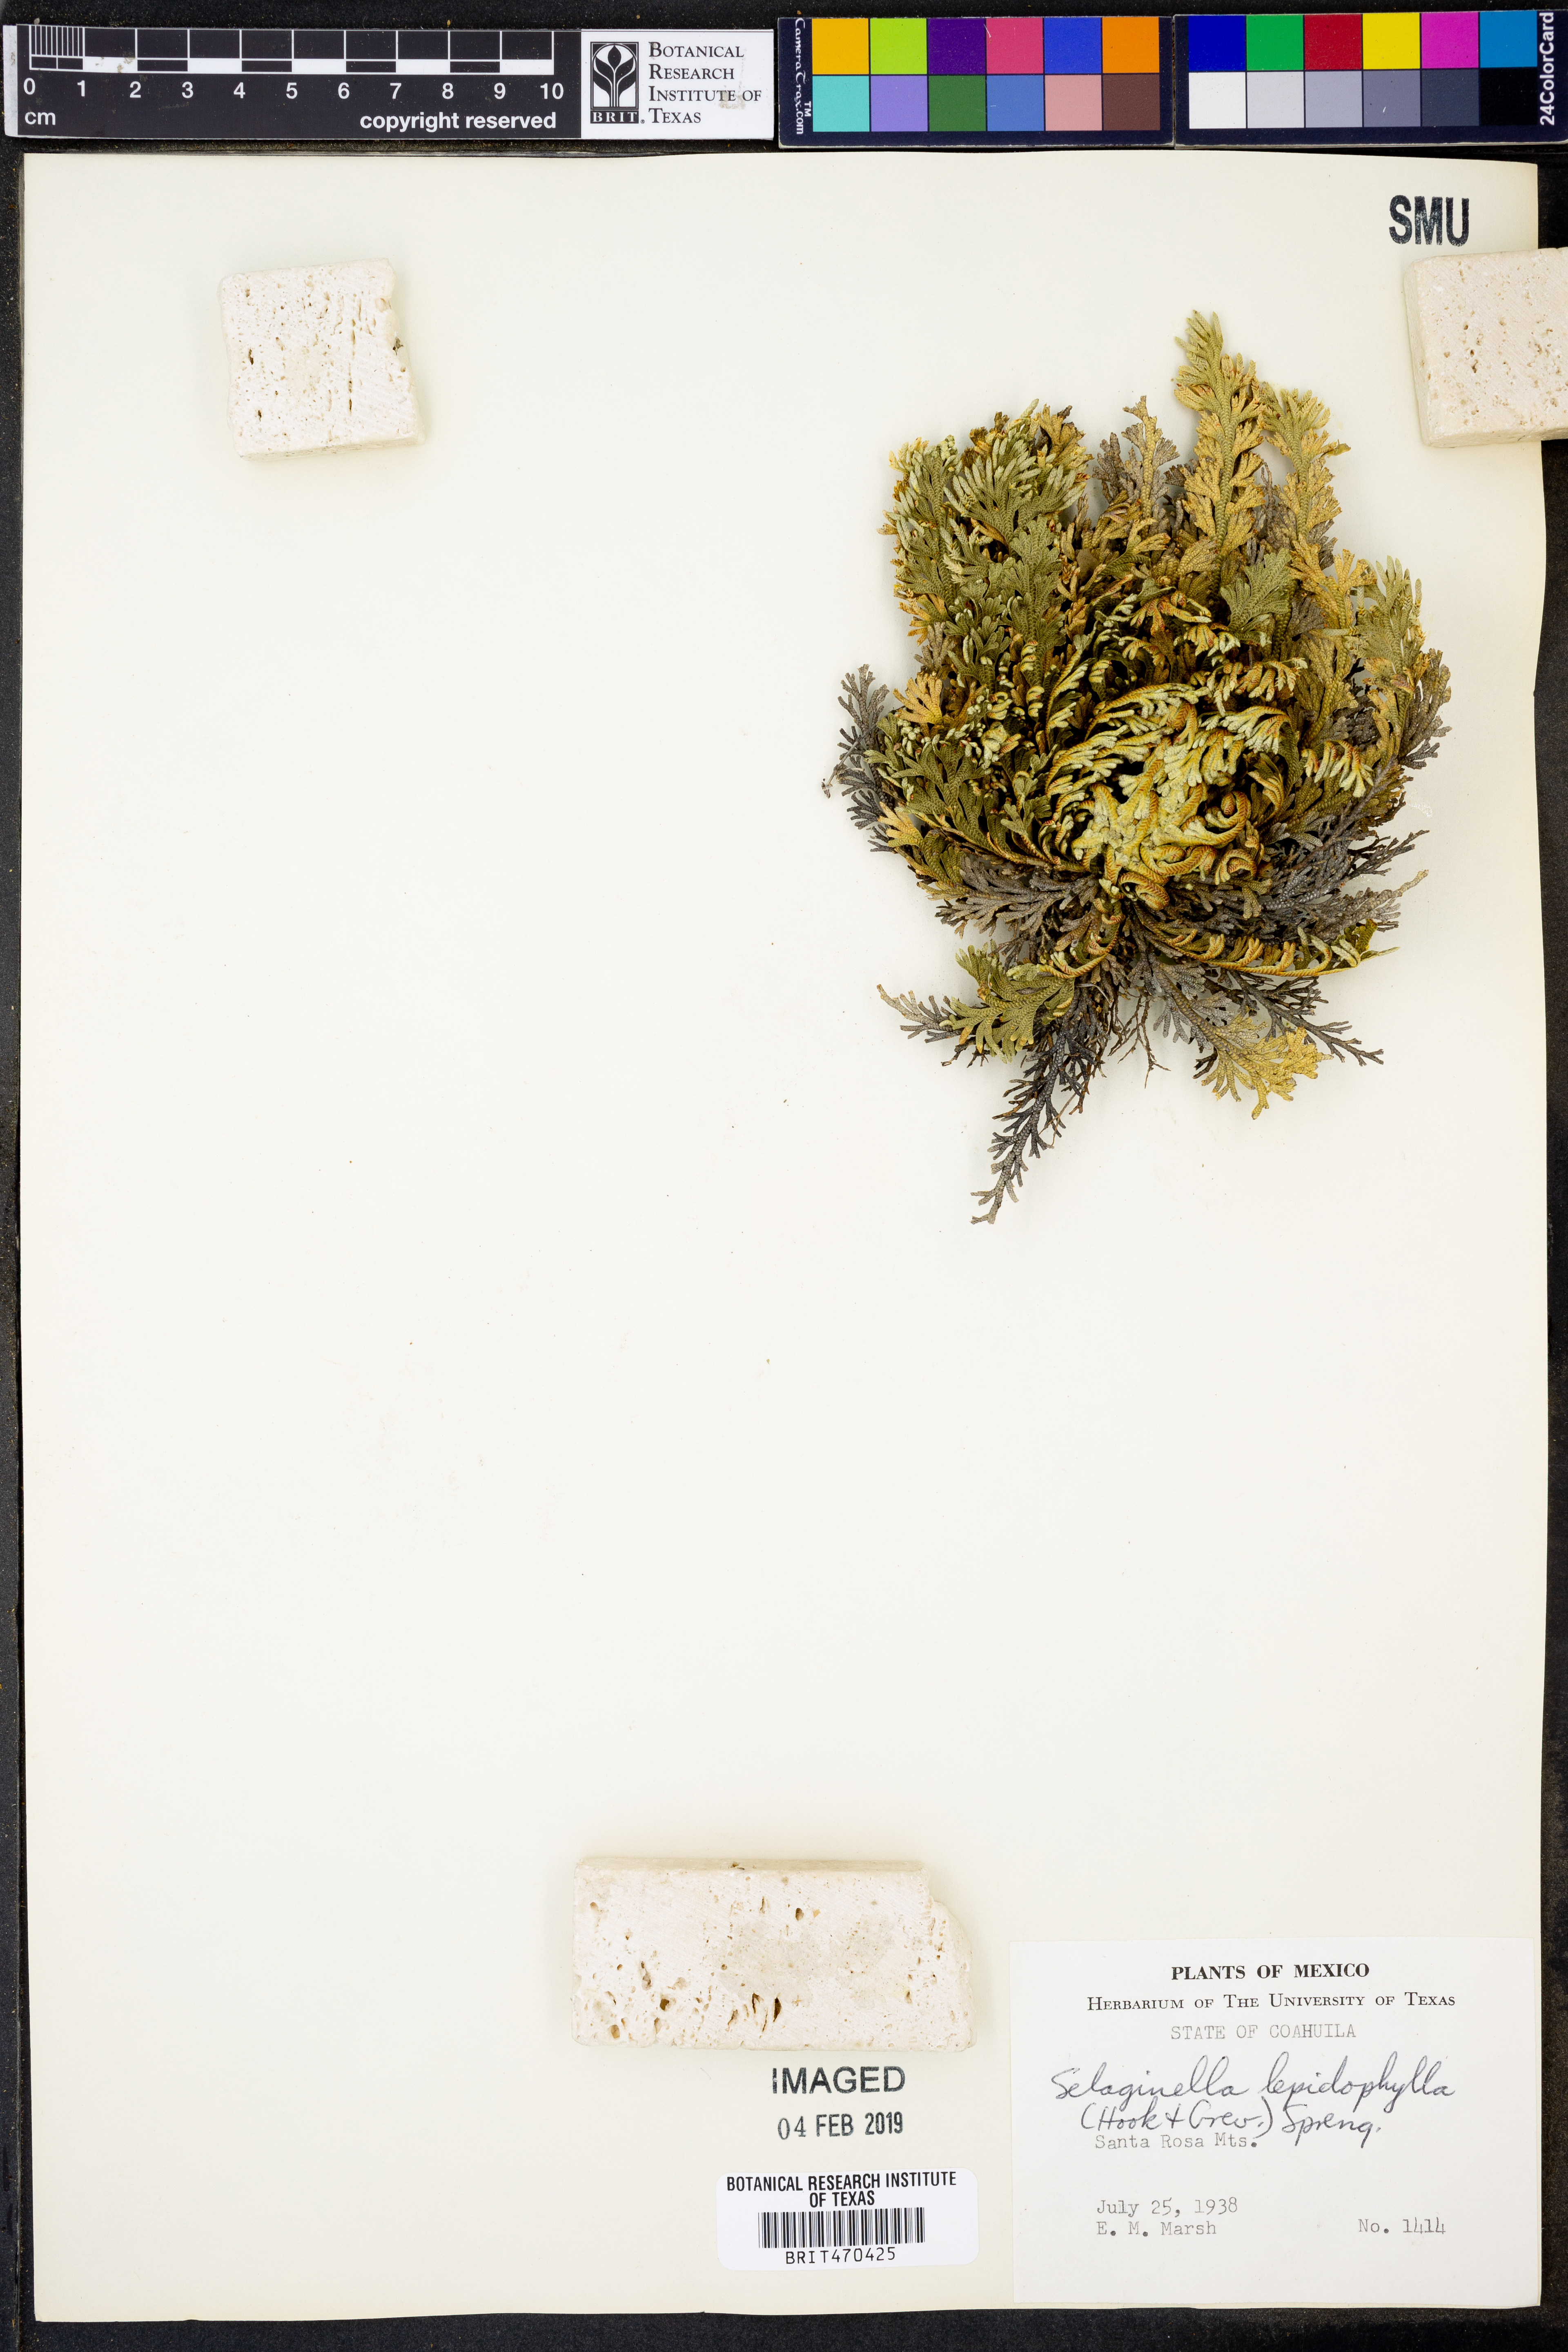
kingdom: Plantae
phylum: Tracheophyta
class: Lycopodiopsida
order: Selaginellales
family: Selaginellaceae
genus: Selaginella
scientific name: Selaginella lepidophylla
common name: Rose-of-jericho
